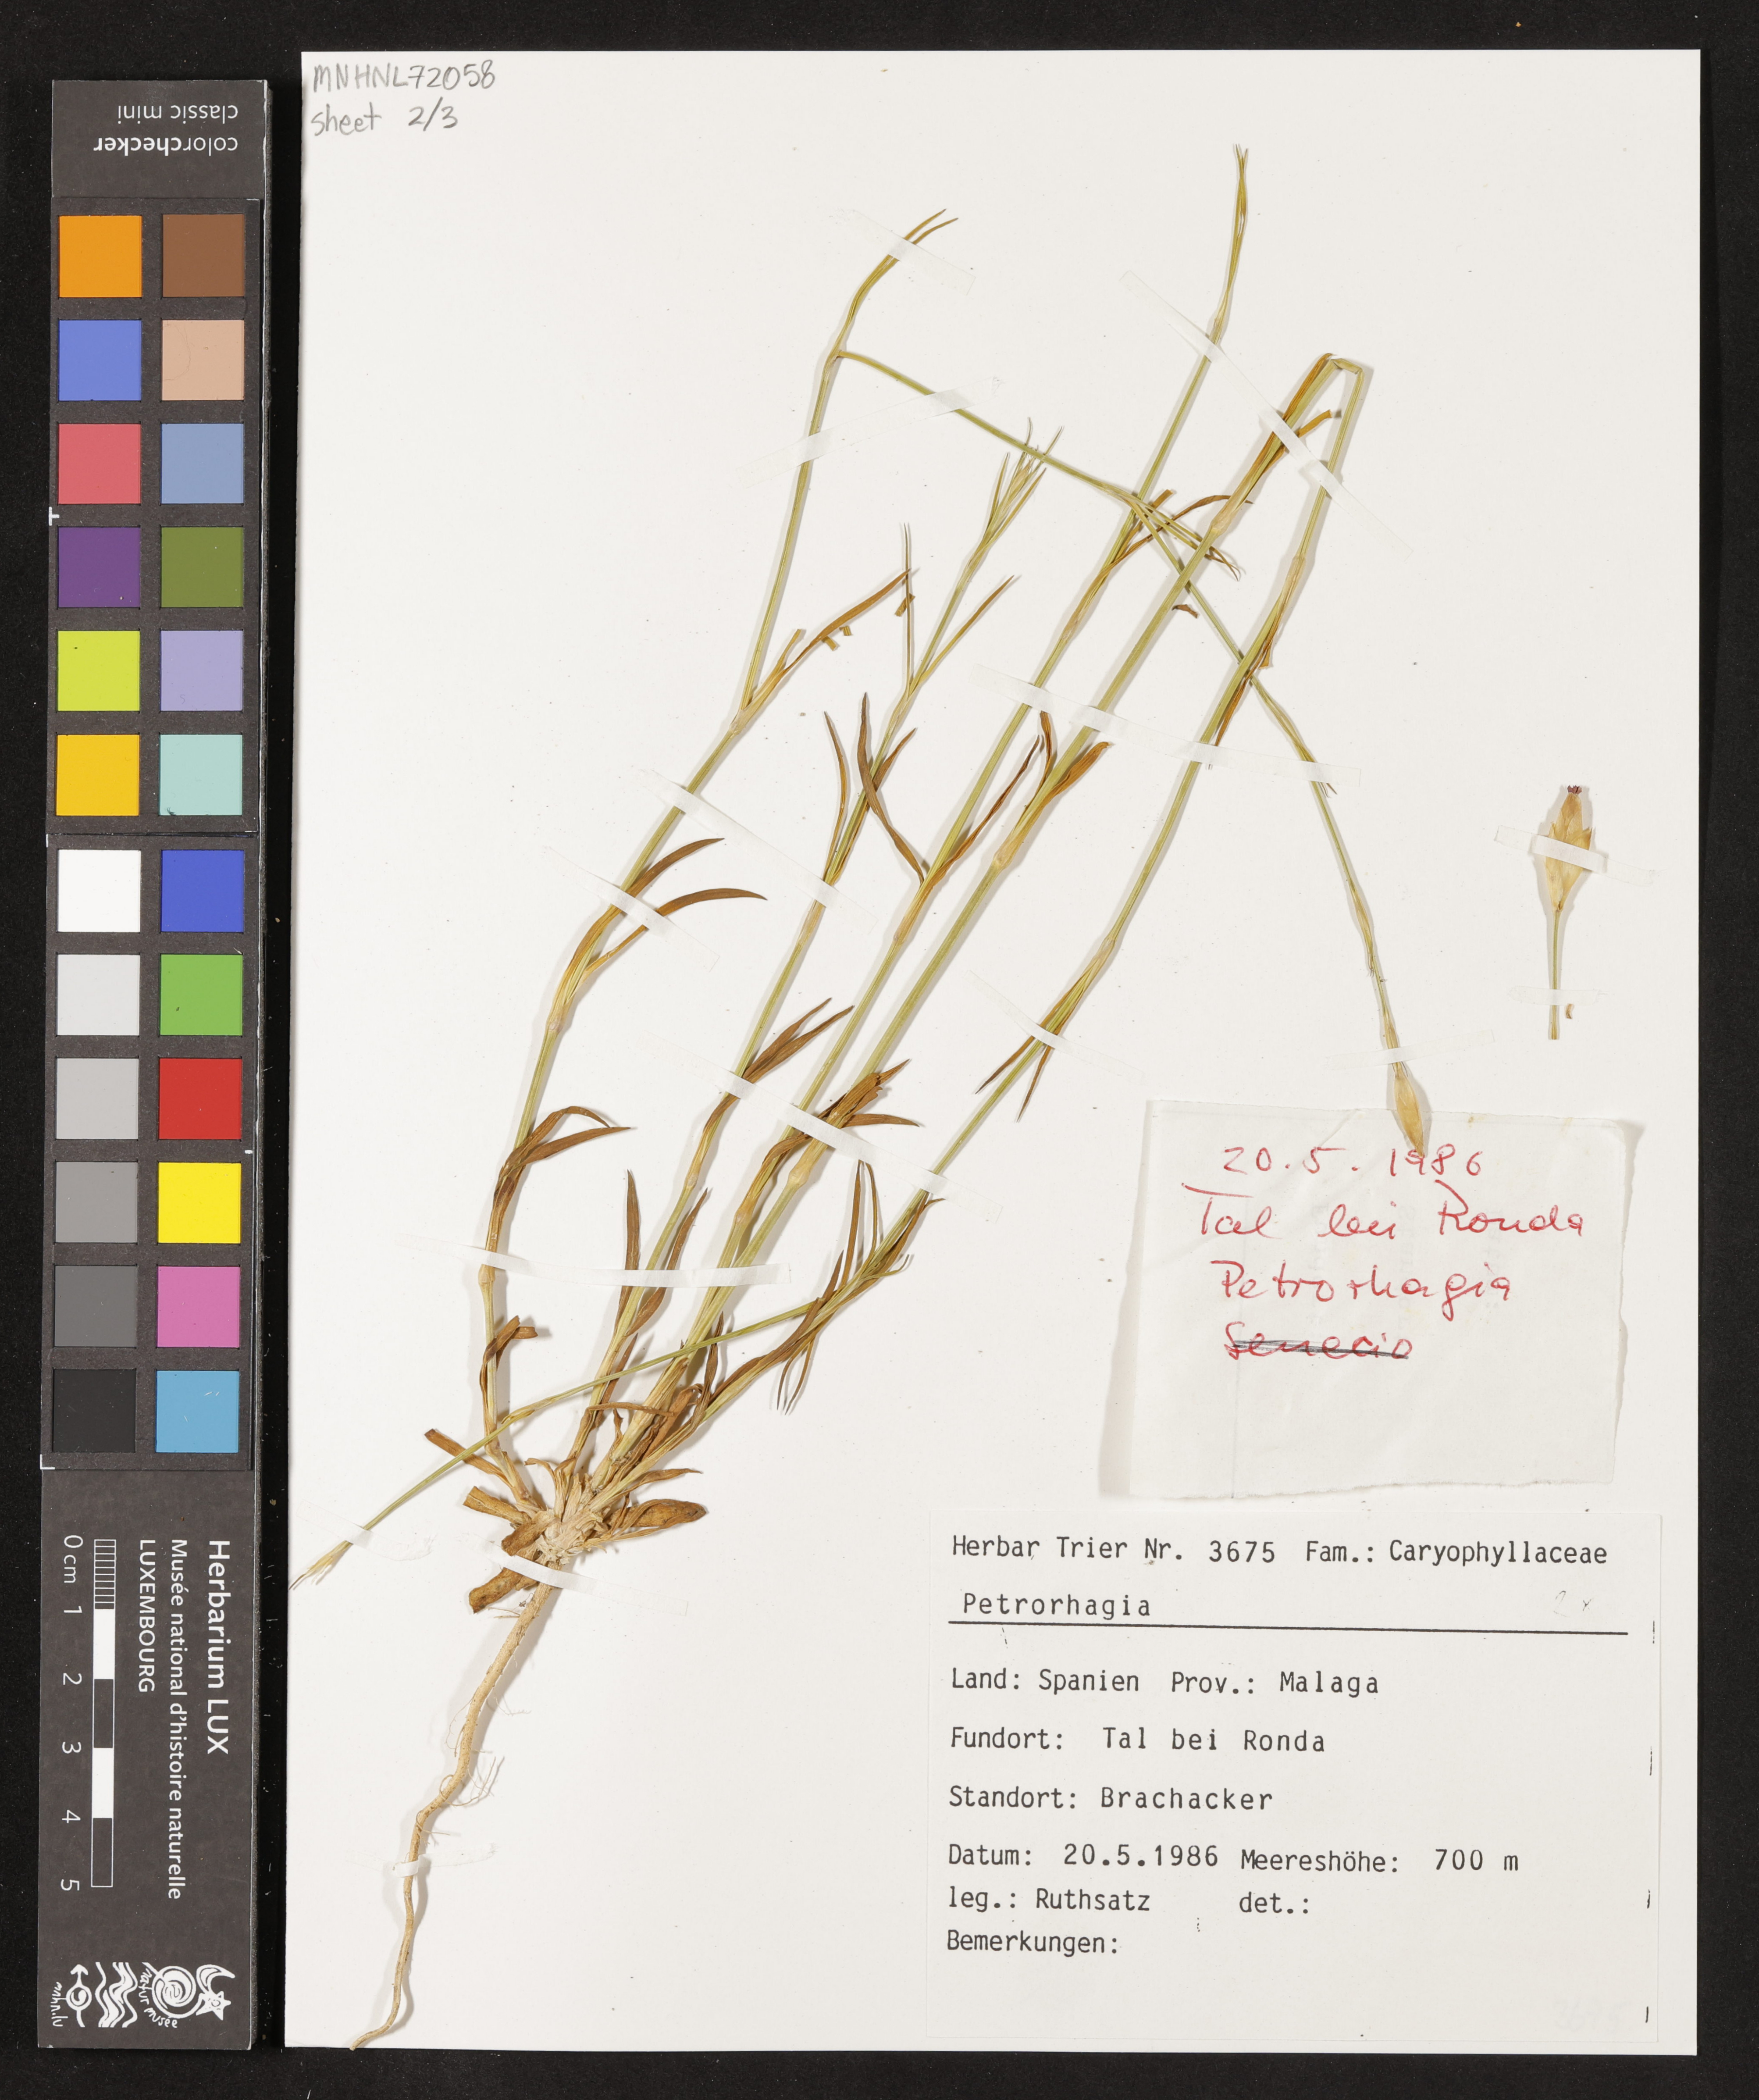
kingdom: Plantae
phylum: Tracheophyta
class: Magnoliopsida
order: Caryophyllales
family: Caryophyllaceae
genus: Petrorhagia
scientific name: Petrorhagia prolifera
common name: Proliferous pink
